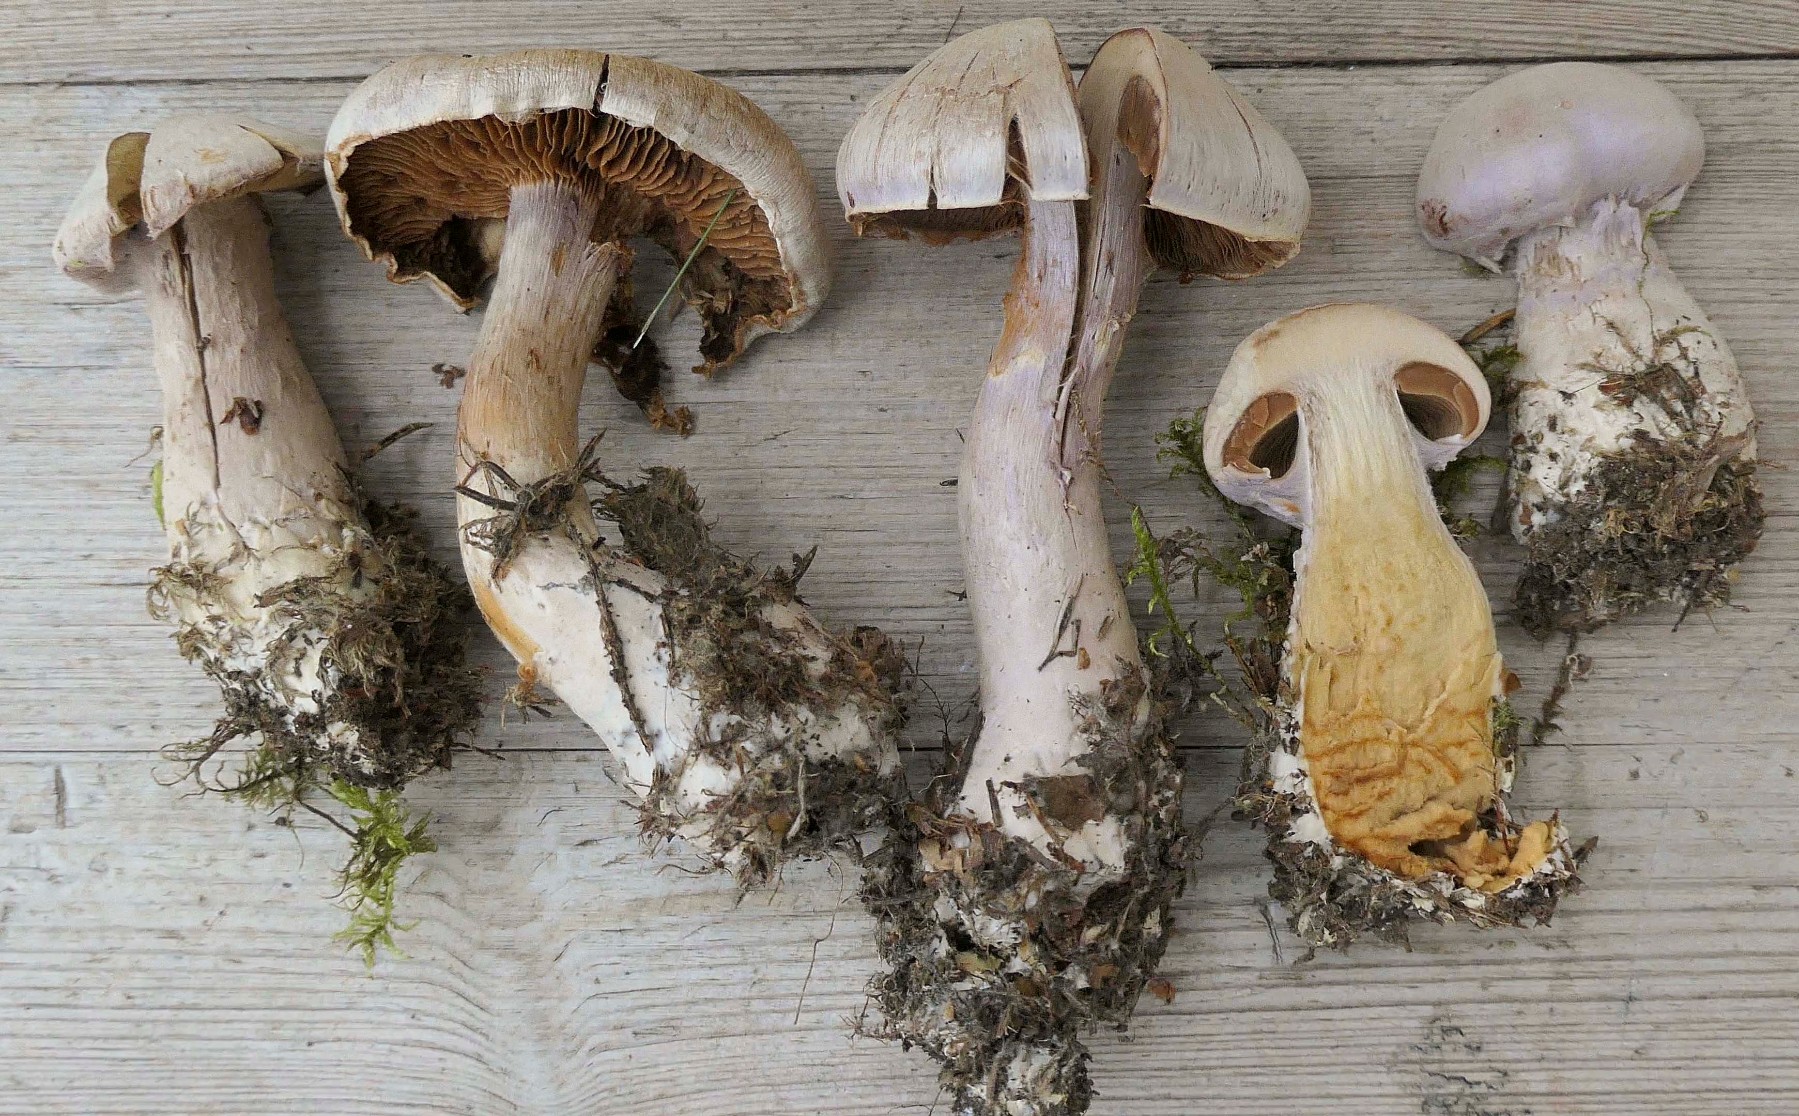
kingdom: Fungi
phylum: Basidiomycota
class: Agaricomycetes
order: Agaricales
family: Cortinariaceae
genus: Cortinarius
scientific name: Cortinarius traganus
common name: safrankødet slørhat
